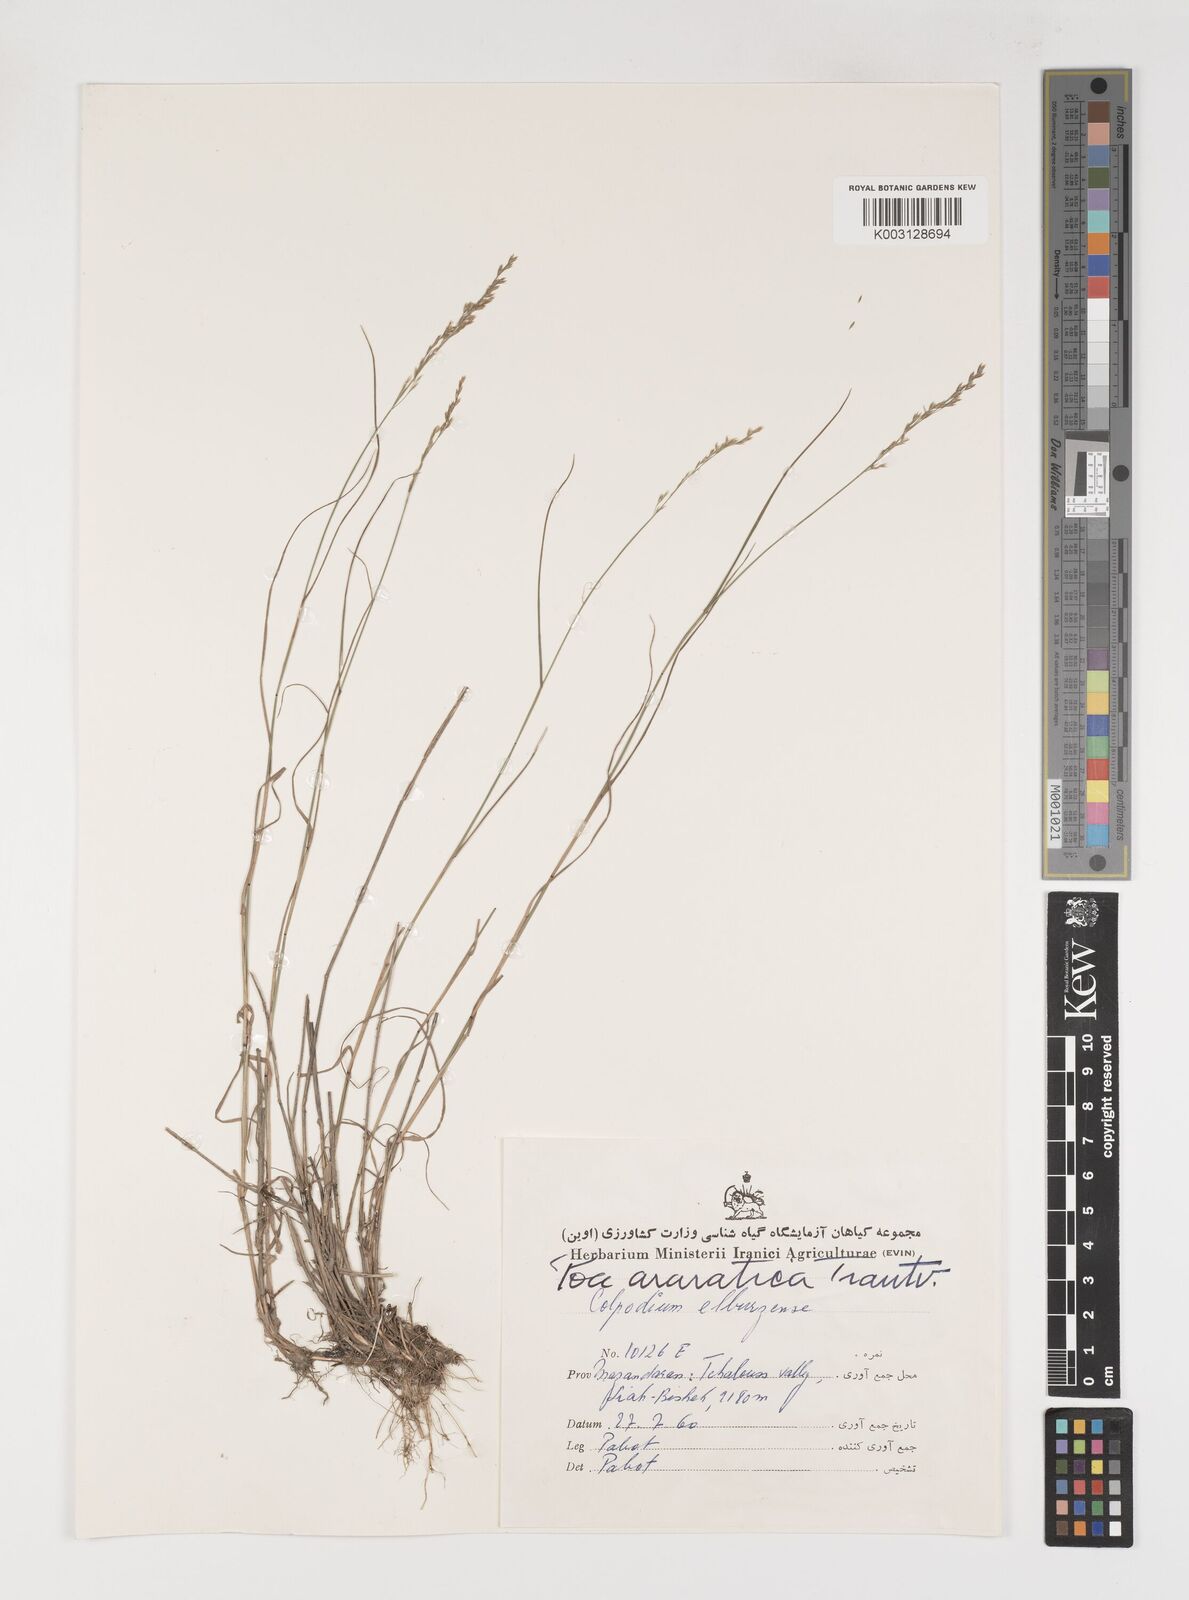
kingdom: Plantae
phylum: Tracheophyta
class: Liliopsida
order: Poales
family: Poaceae
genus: Poa
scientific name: Poa araratica
